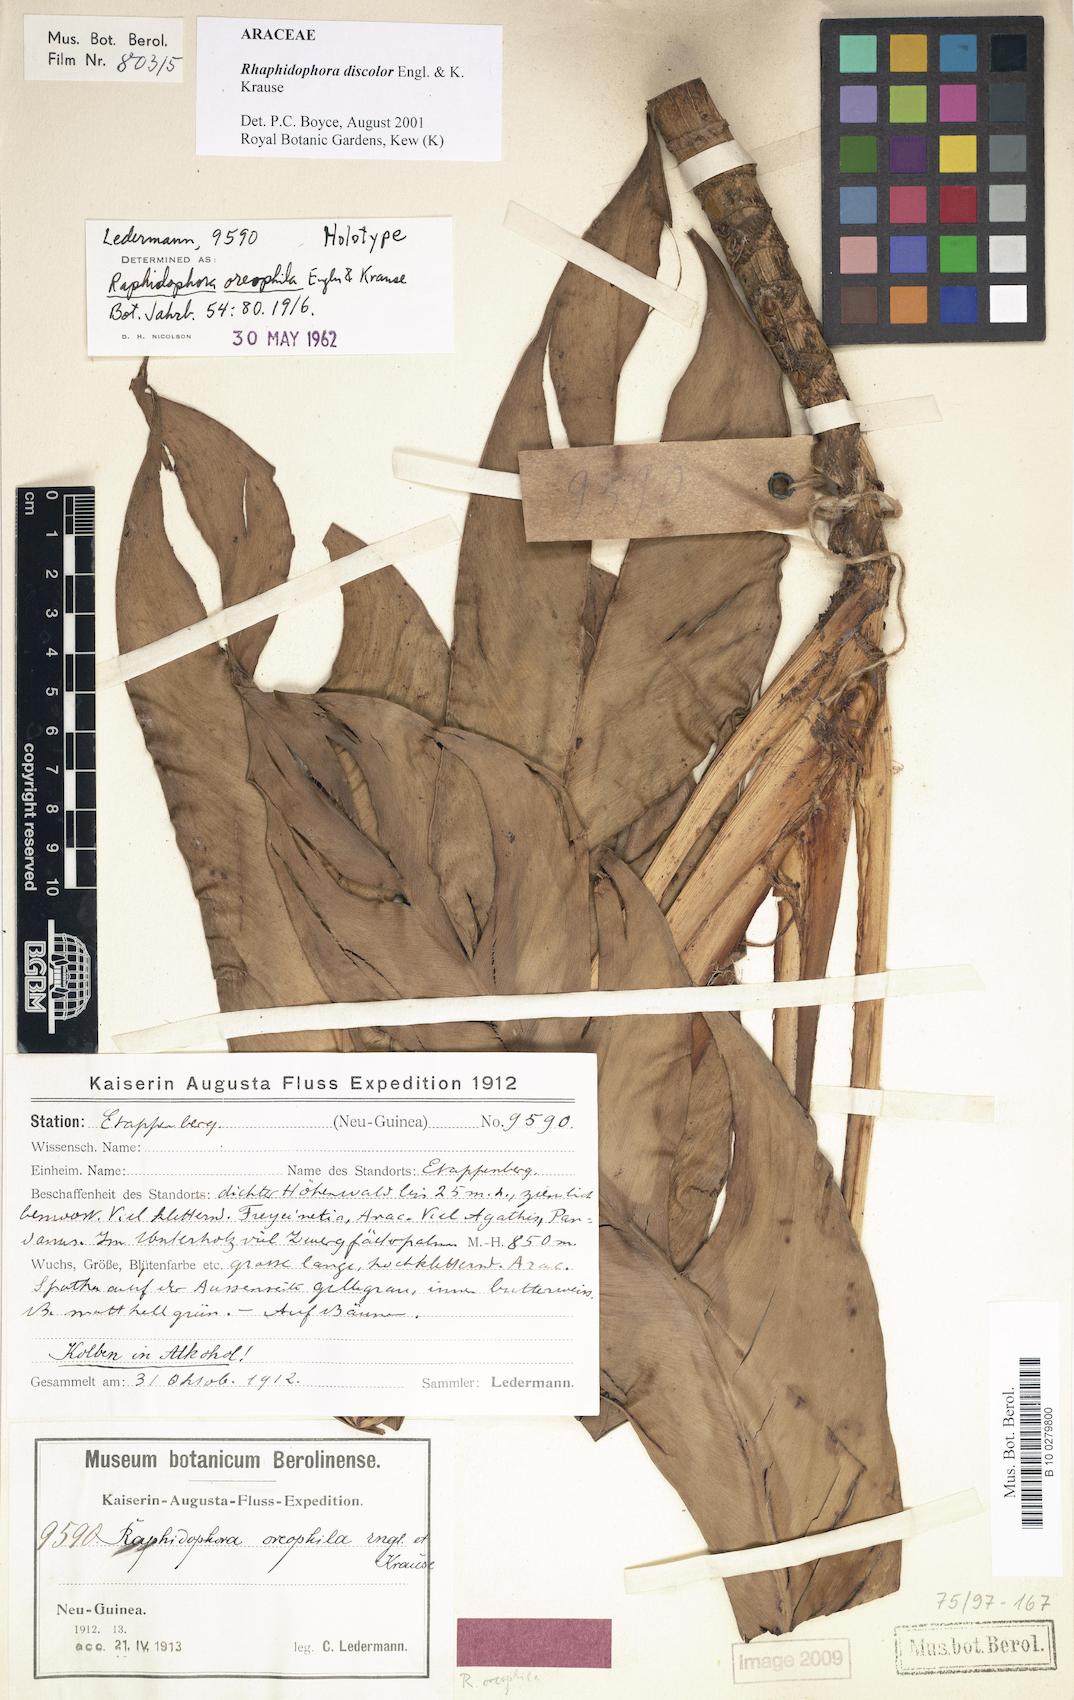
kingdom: Plantae
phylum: Tracheophyta
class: Liliopsida
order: Alismatales
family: Araceae
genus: Rhaphidophora
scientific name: Rhaphidophora discolor
